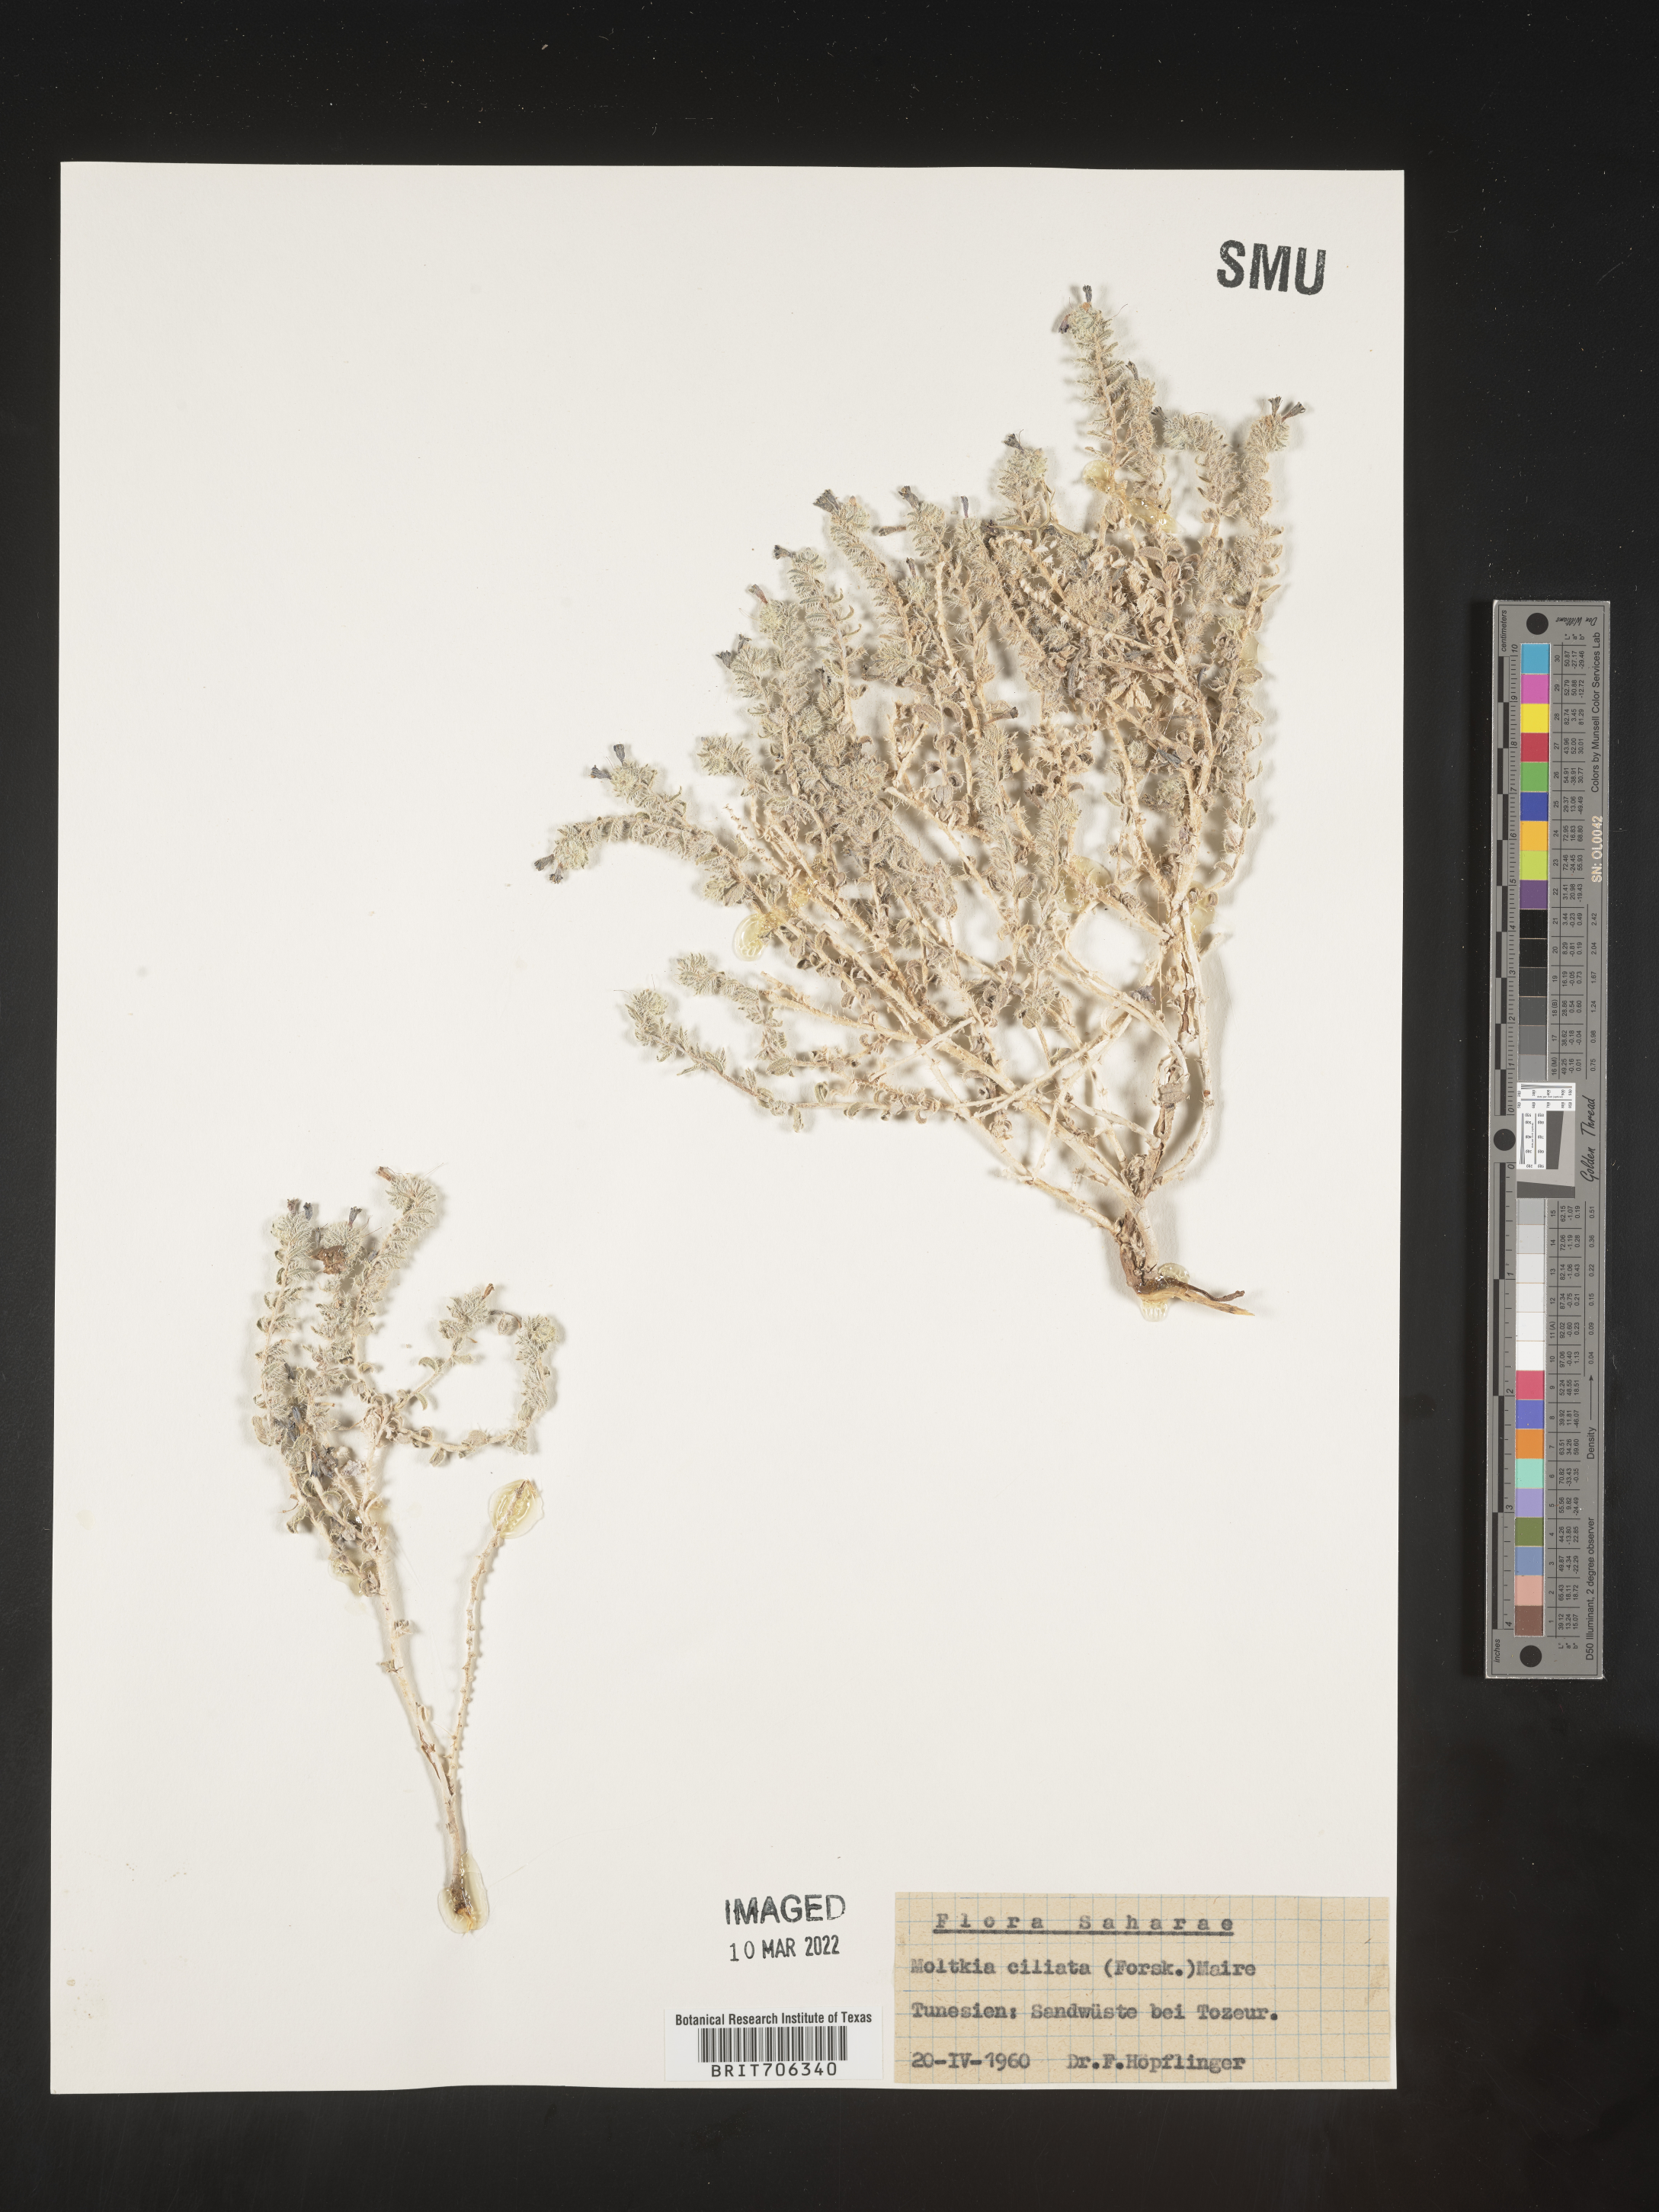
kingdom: Plantae
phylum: Tracheophyta
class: Magnoliopsida
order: Boraginales
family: Boraginaceae
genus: Moltkia
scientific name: Moltkia
